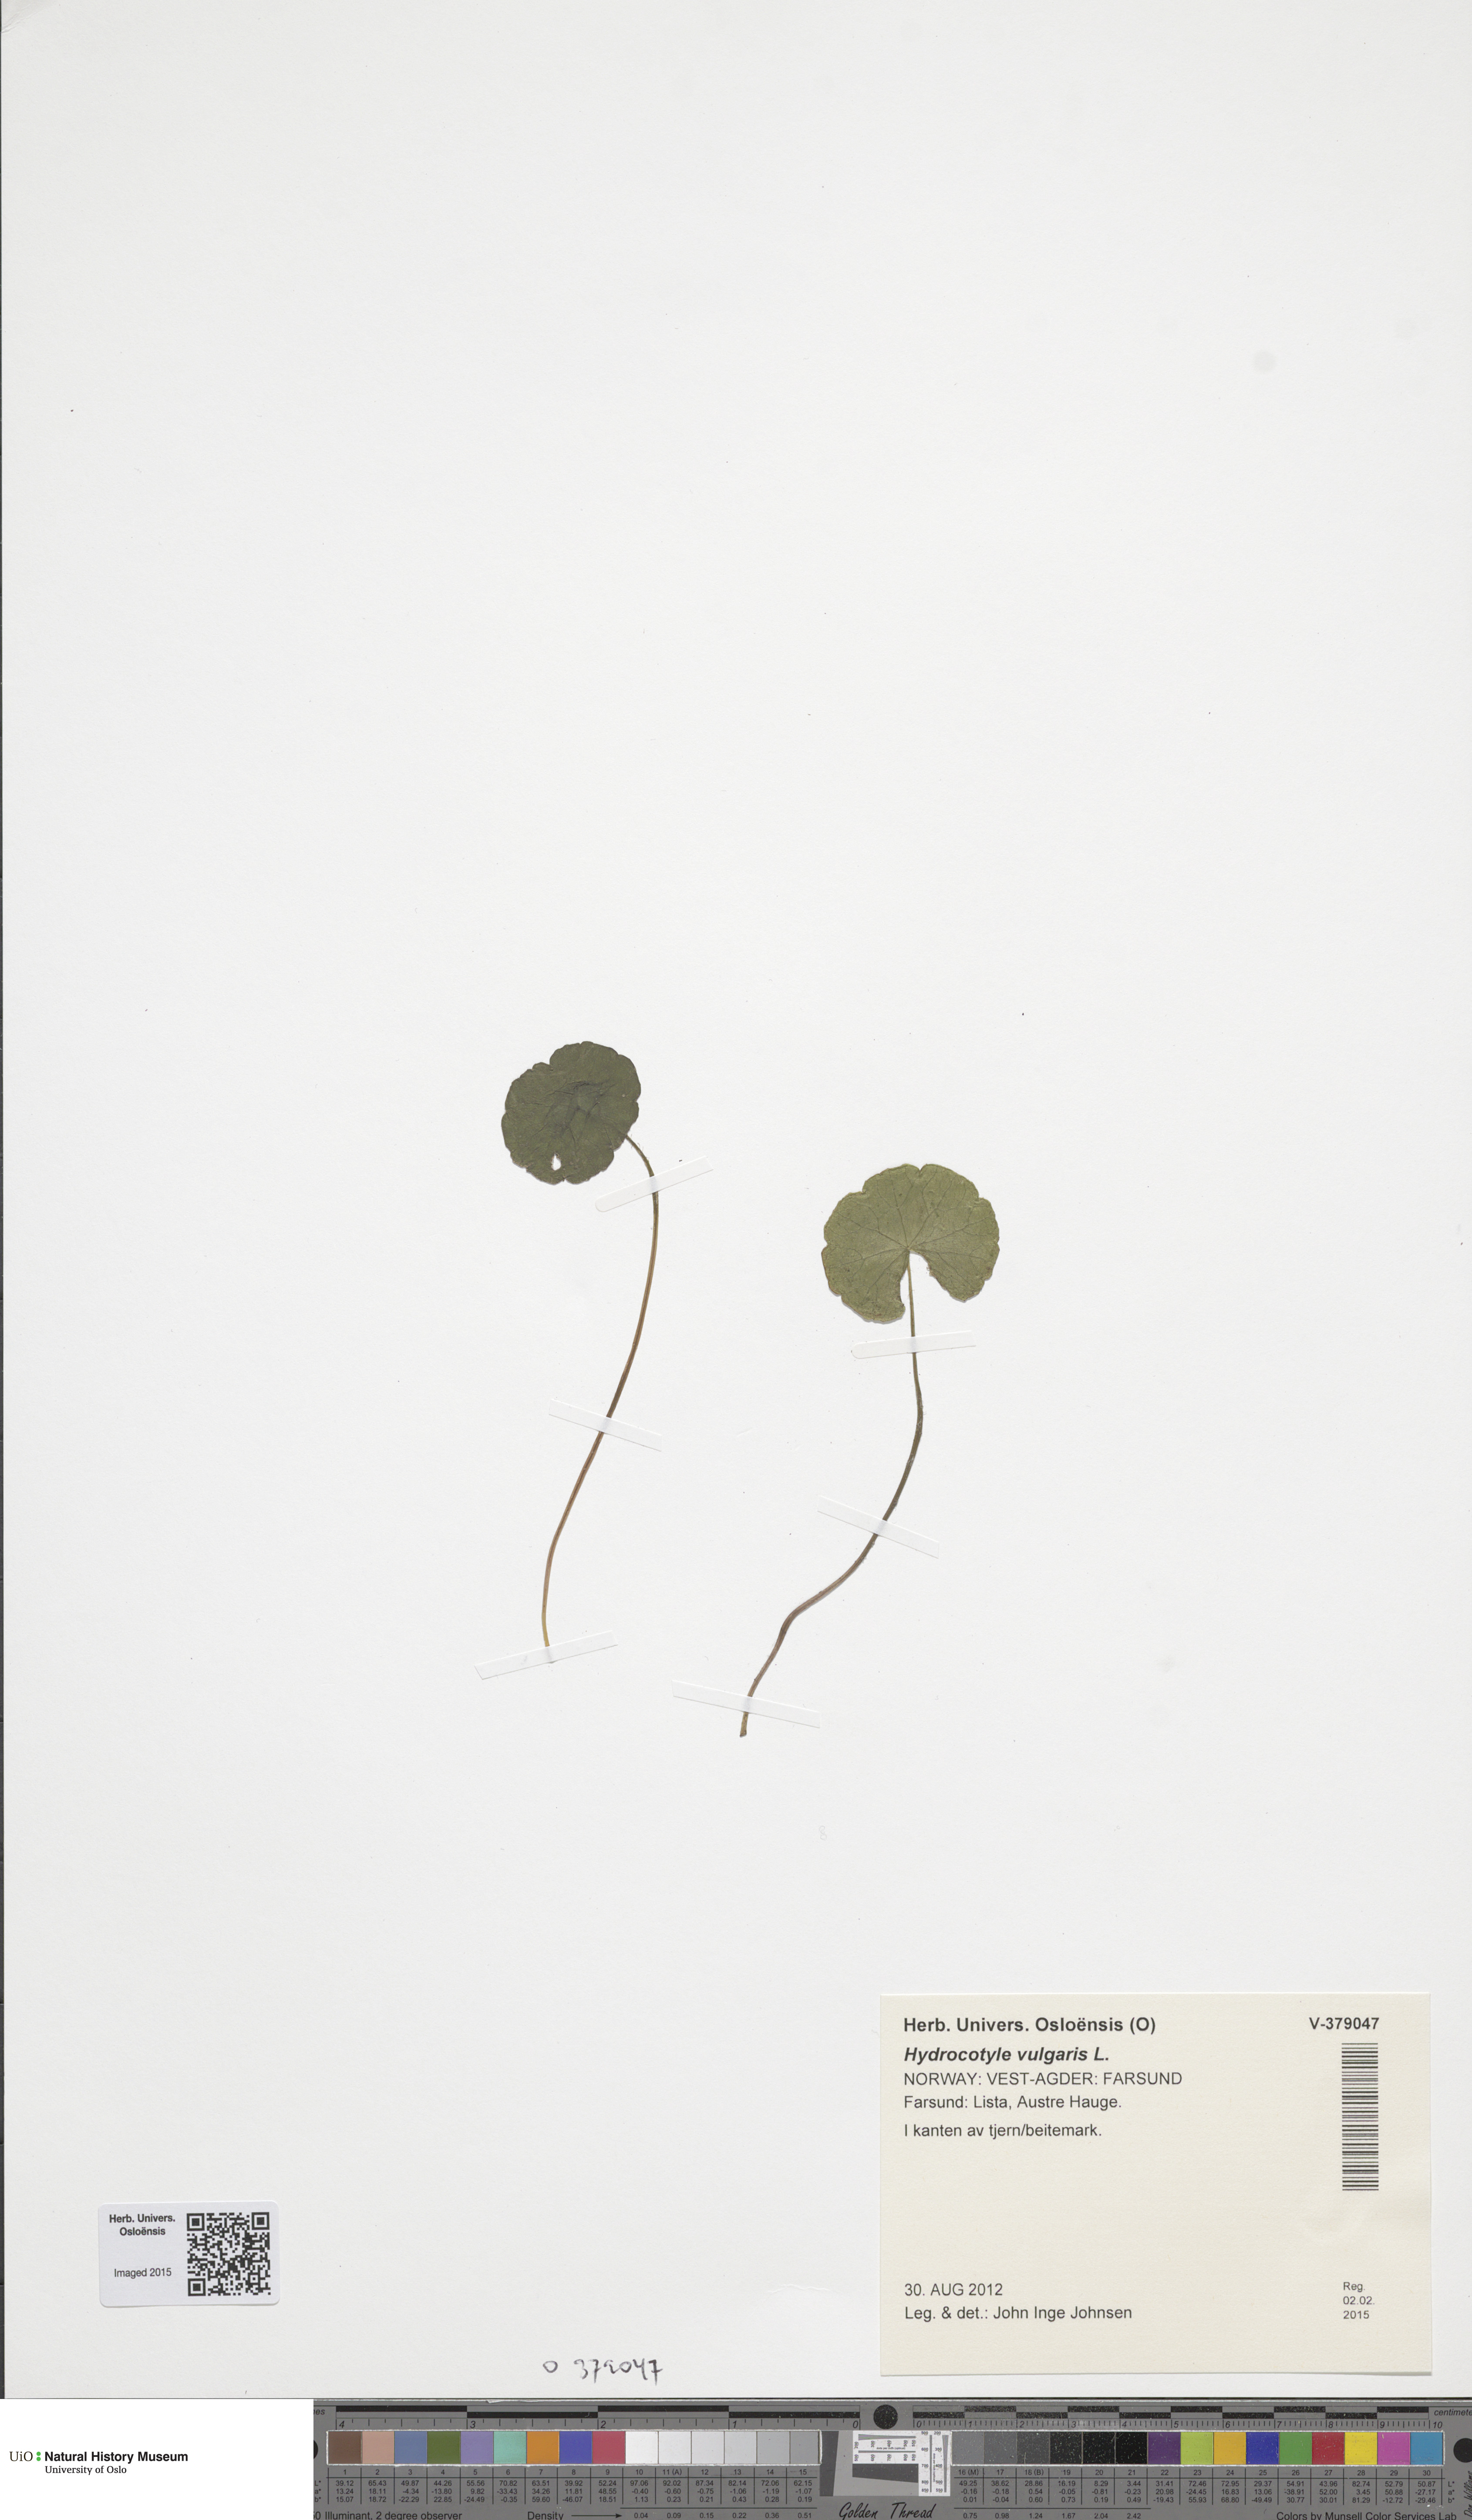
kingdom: Plantae
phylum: Tracheophyta
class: Magnoliopsida
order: Apiales
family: Araliaceae
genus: Hydrocotyle
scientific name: Hydrocotyle vulgaris
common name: Marsh pennywort
